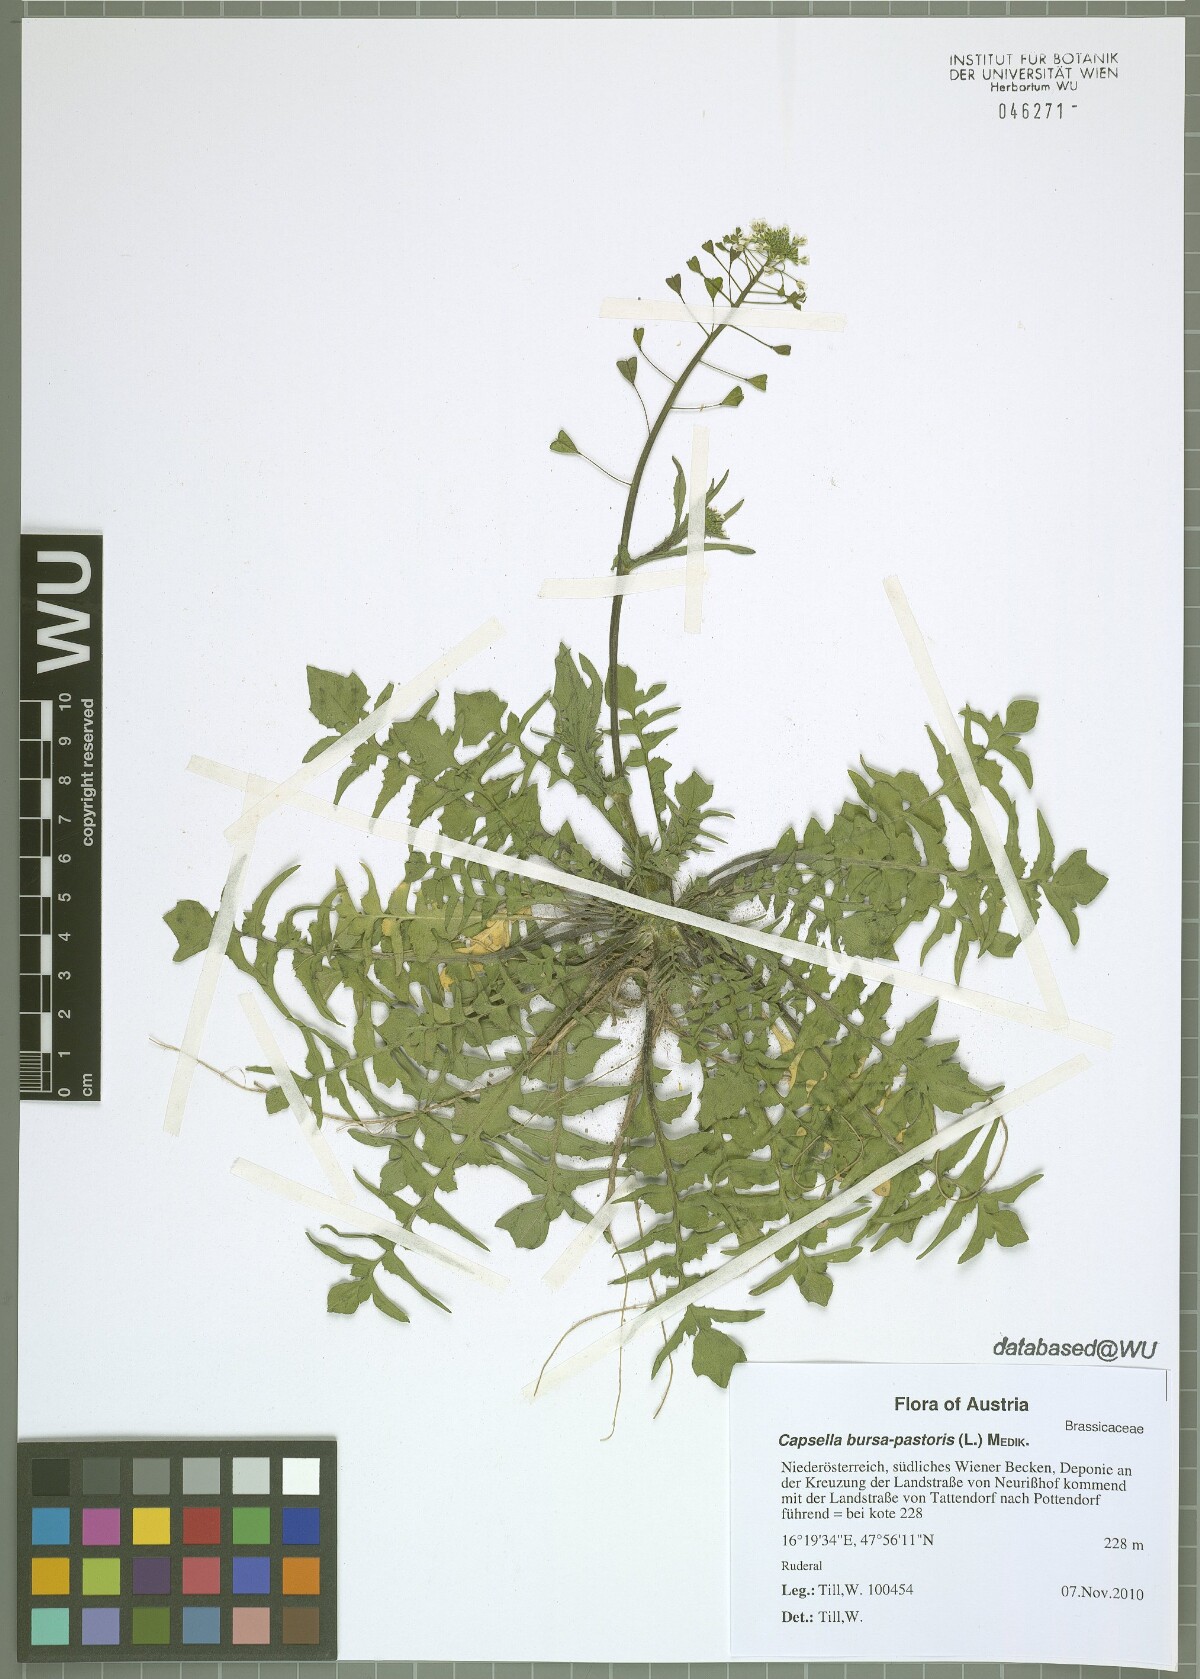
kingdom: Plantae
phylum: Tracheophyta
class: Magnoliopsida
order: Brassicales
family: Brassicaceae
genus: Capsella
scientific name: Capsella bursa-pastoris
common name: Shepherd's purse
